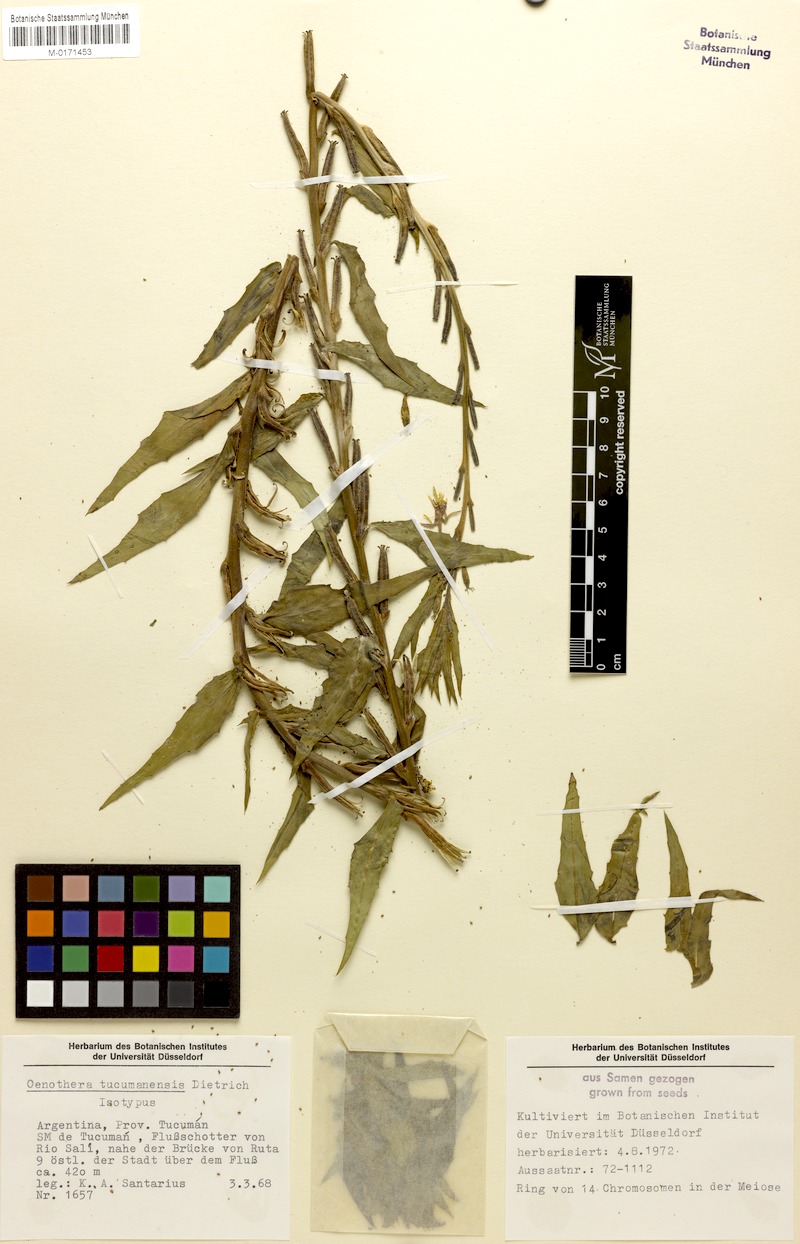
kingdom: Plantae
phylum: Tracheophyta
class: Magnoliopsida
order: Myrtales
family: Onagraceae
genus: Oenothera
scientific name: Oenothera tucumanensis
